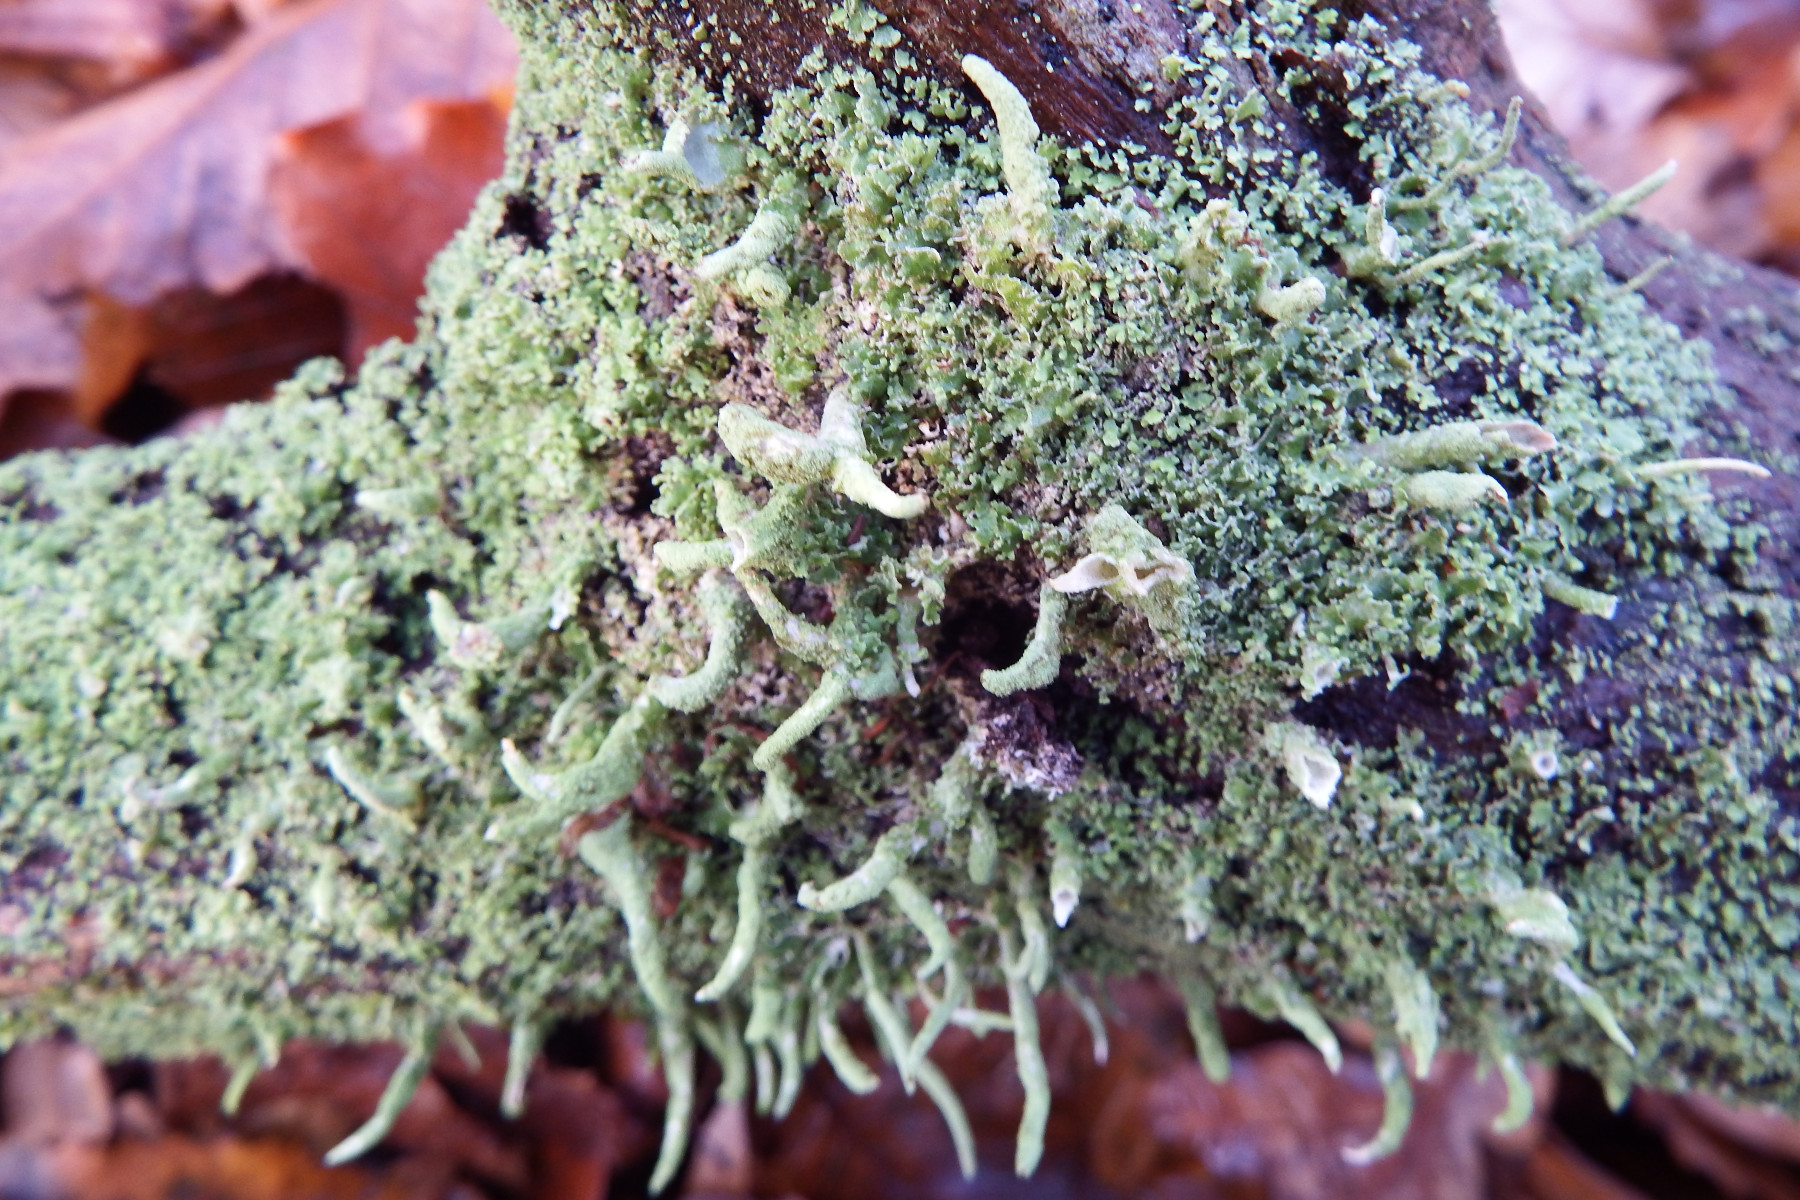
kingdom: Fungi
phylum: Ascomycota
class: Lecanoromycetes
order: Lecanorales
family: Cladoniaceae
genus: Cladonia
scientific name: Cladonia coniocraea
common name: træfods-bægerlav
